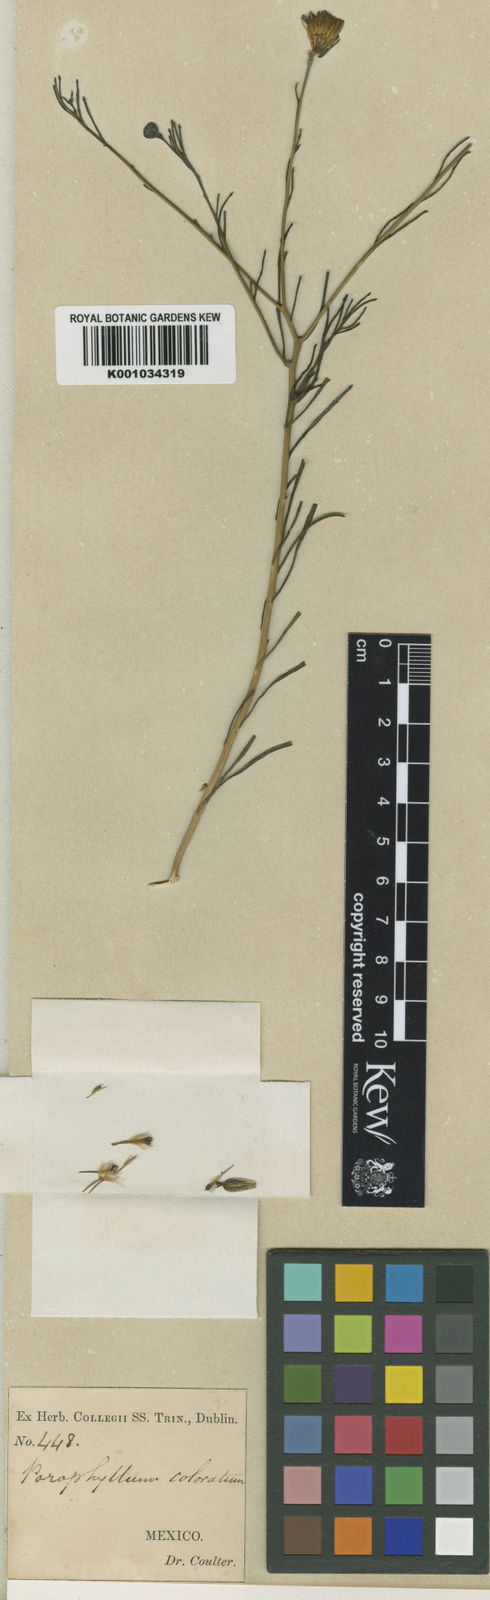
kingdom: Plantae
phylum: Tracheophyta
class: Magnoliopsida
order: Asterales
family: Asteraceae
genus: Porophyllum
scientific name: Porophyllum coloratum
